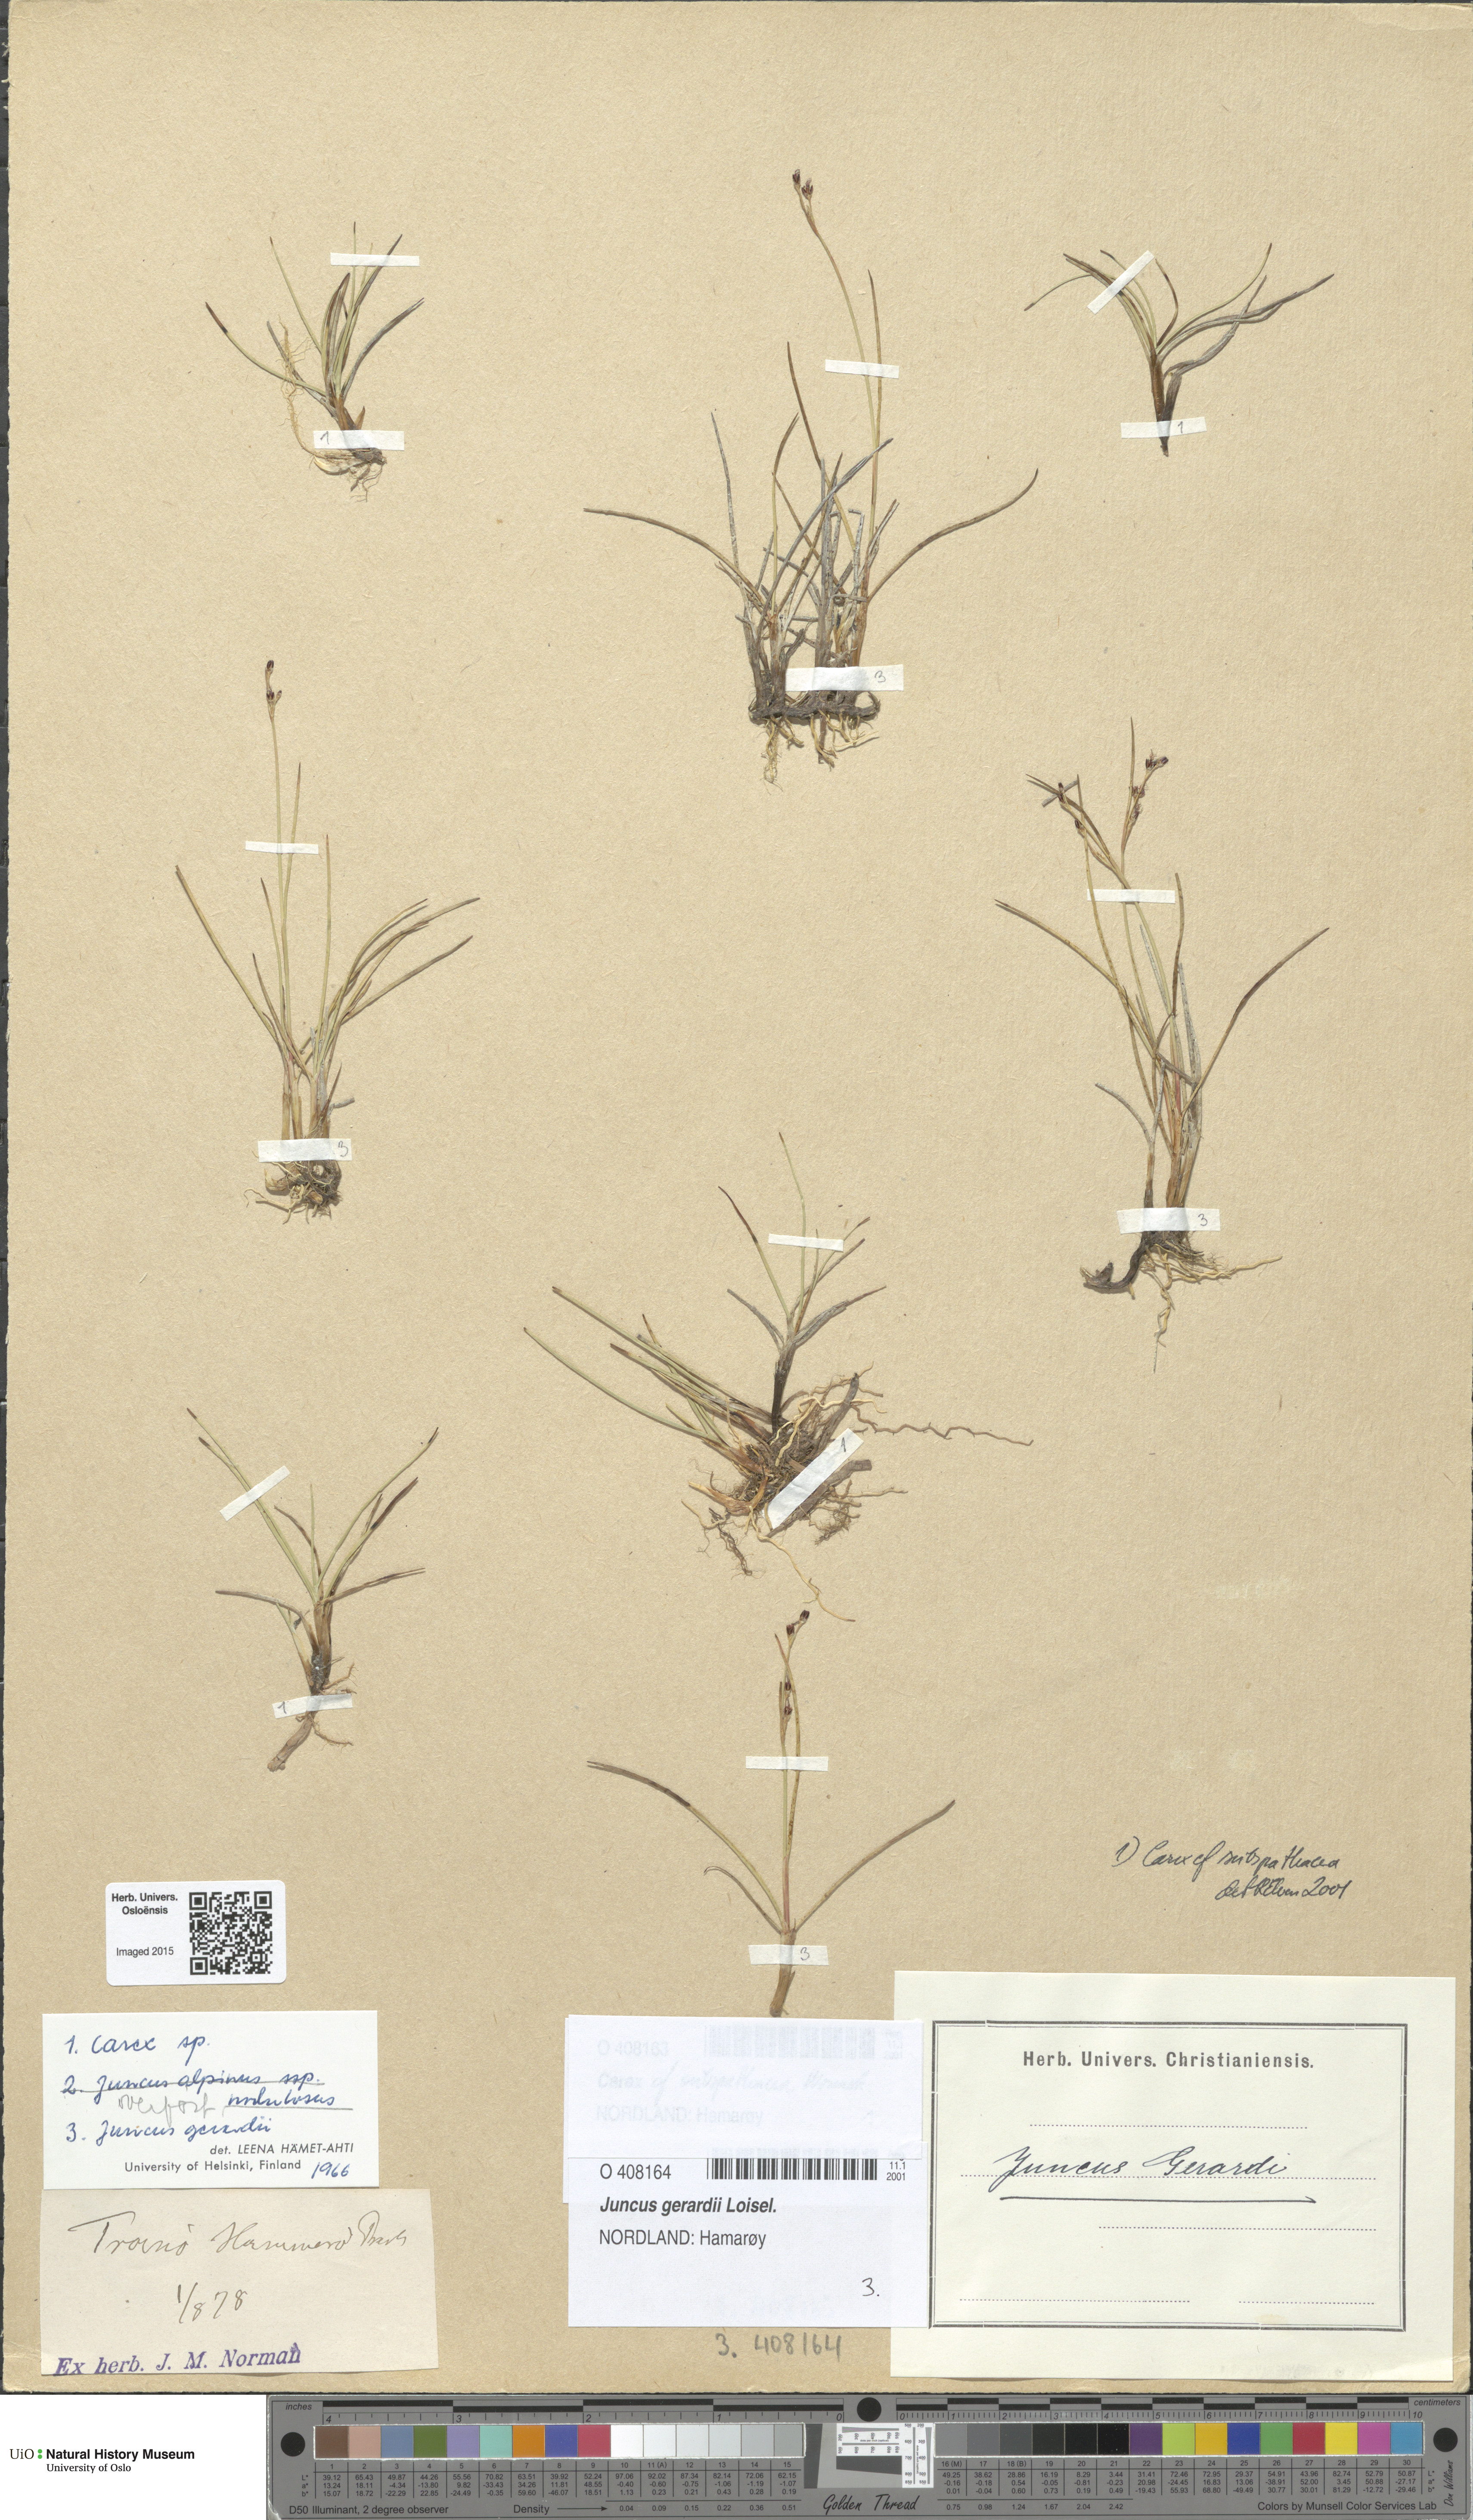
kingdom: Plantae
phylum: Tracheophyta
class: Liliopsida
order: Poales
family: Juncaceae
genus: Juncus
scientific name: Juncus gerardi
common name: Saltmarsh rush
